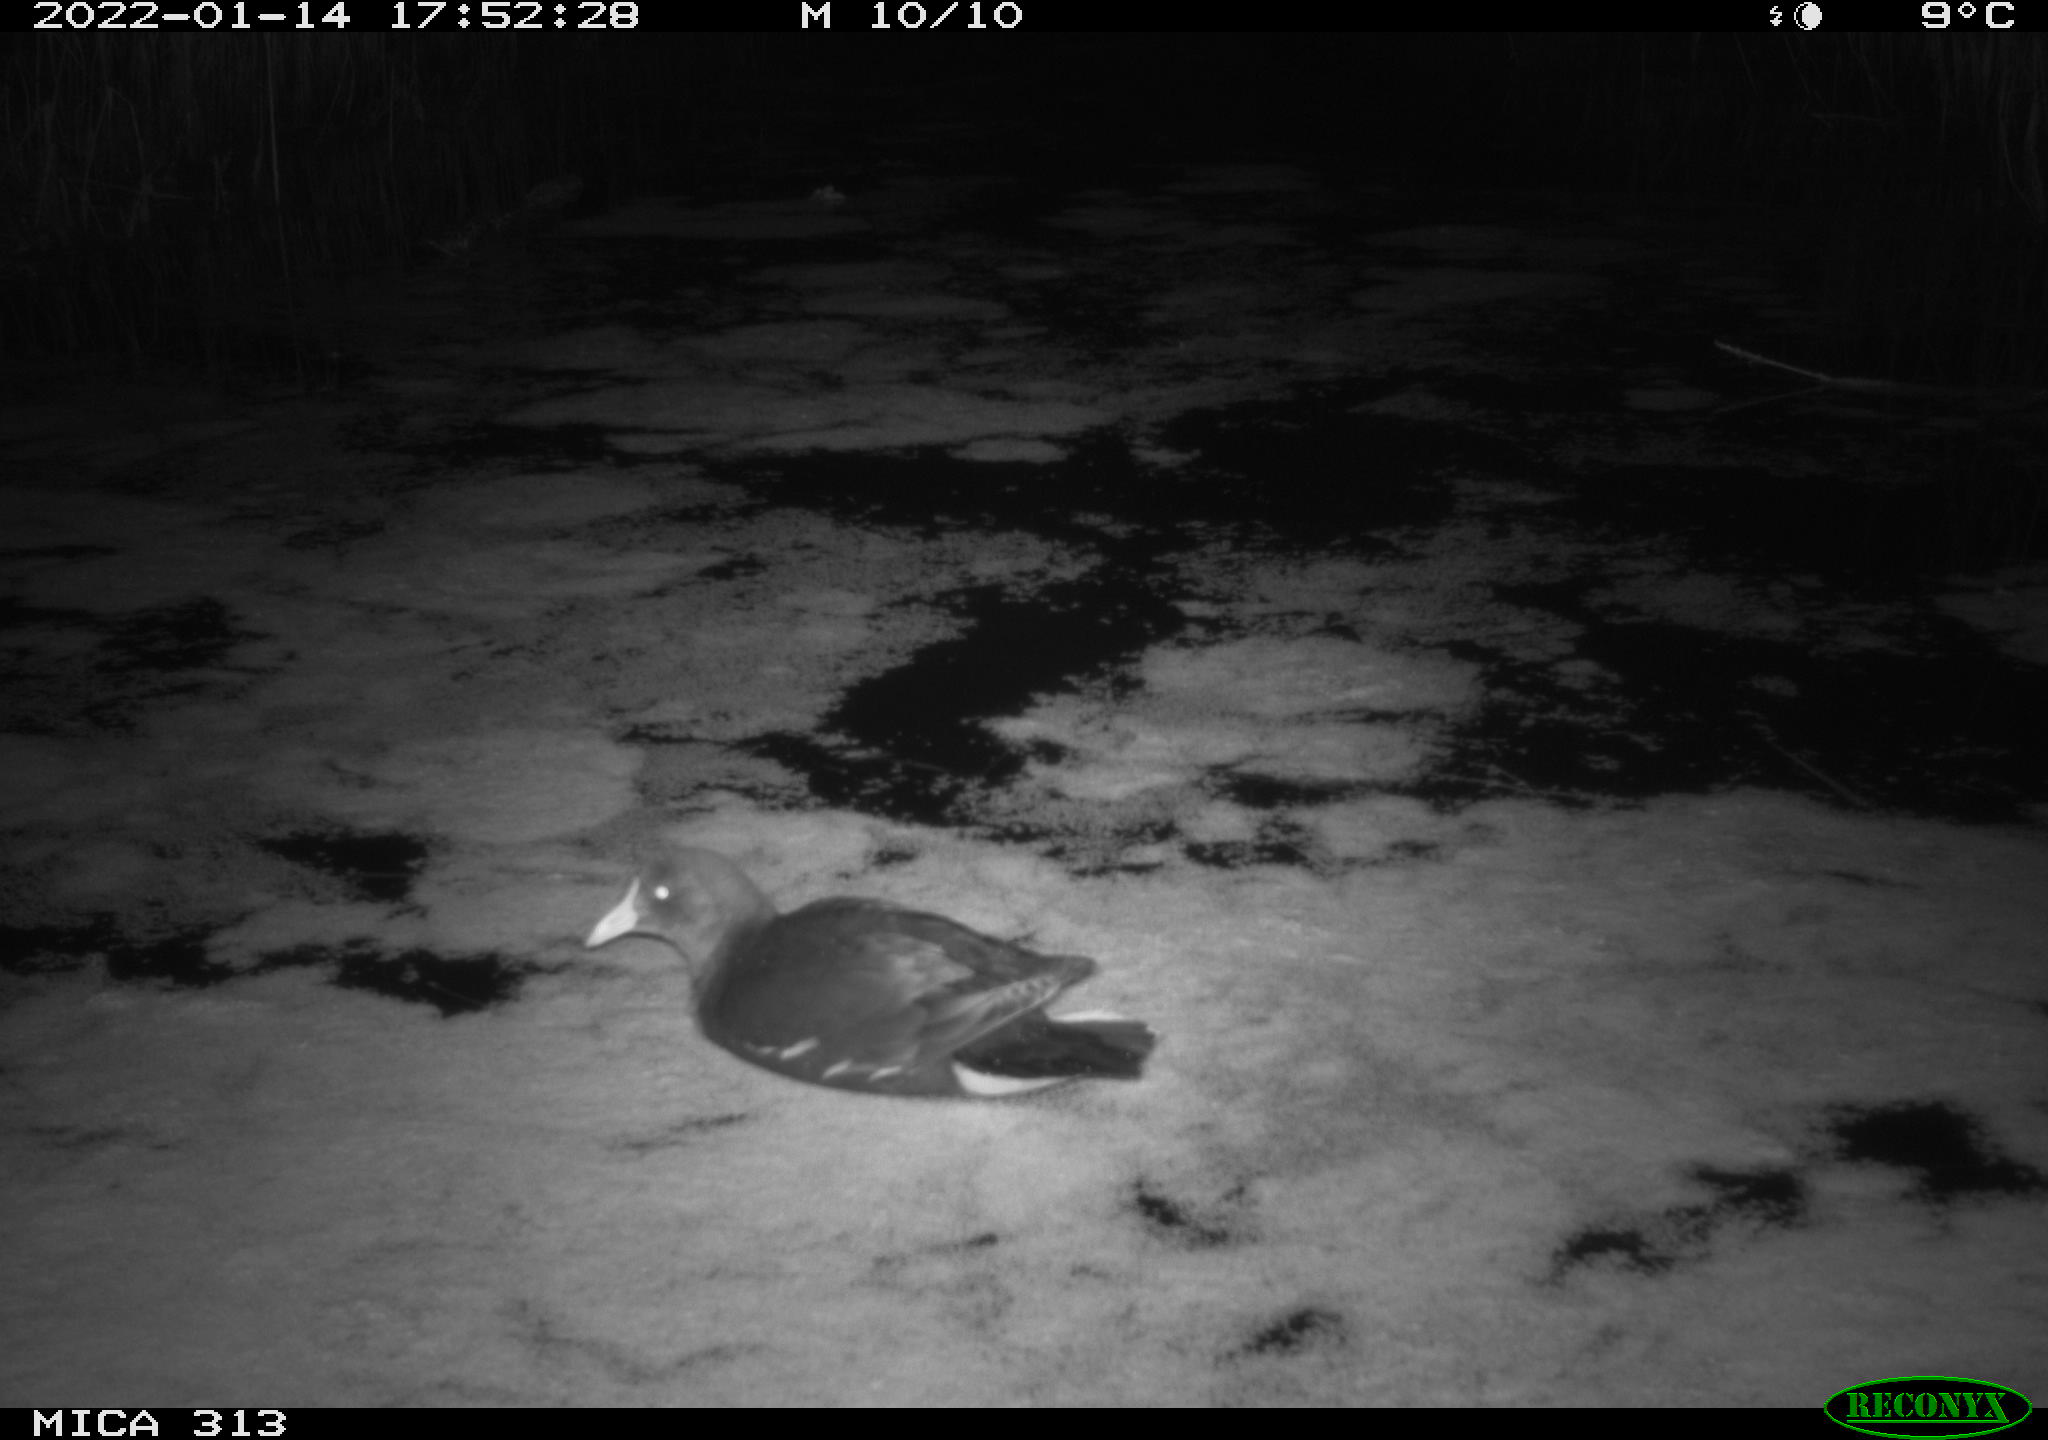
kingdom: Animalia
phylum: Chordata
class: Aves
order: Gruiformes
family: Rallidae
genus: Fulica
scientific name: Fulica atra
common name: Eurasian coot
